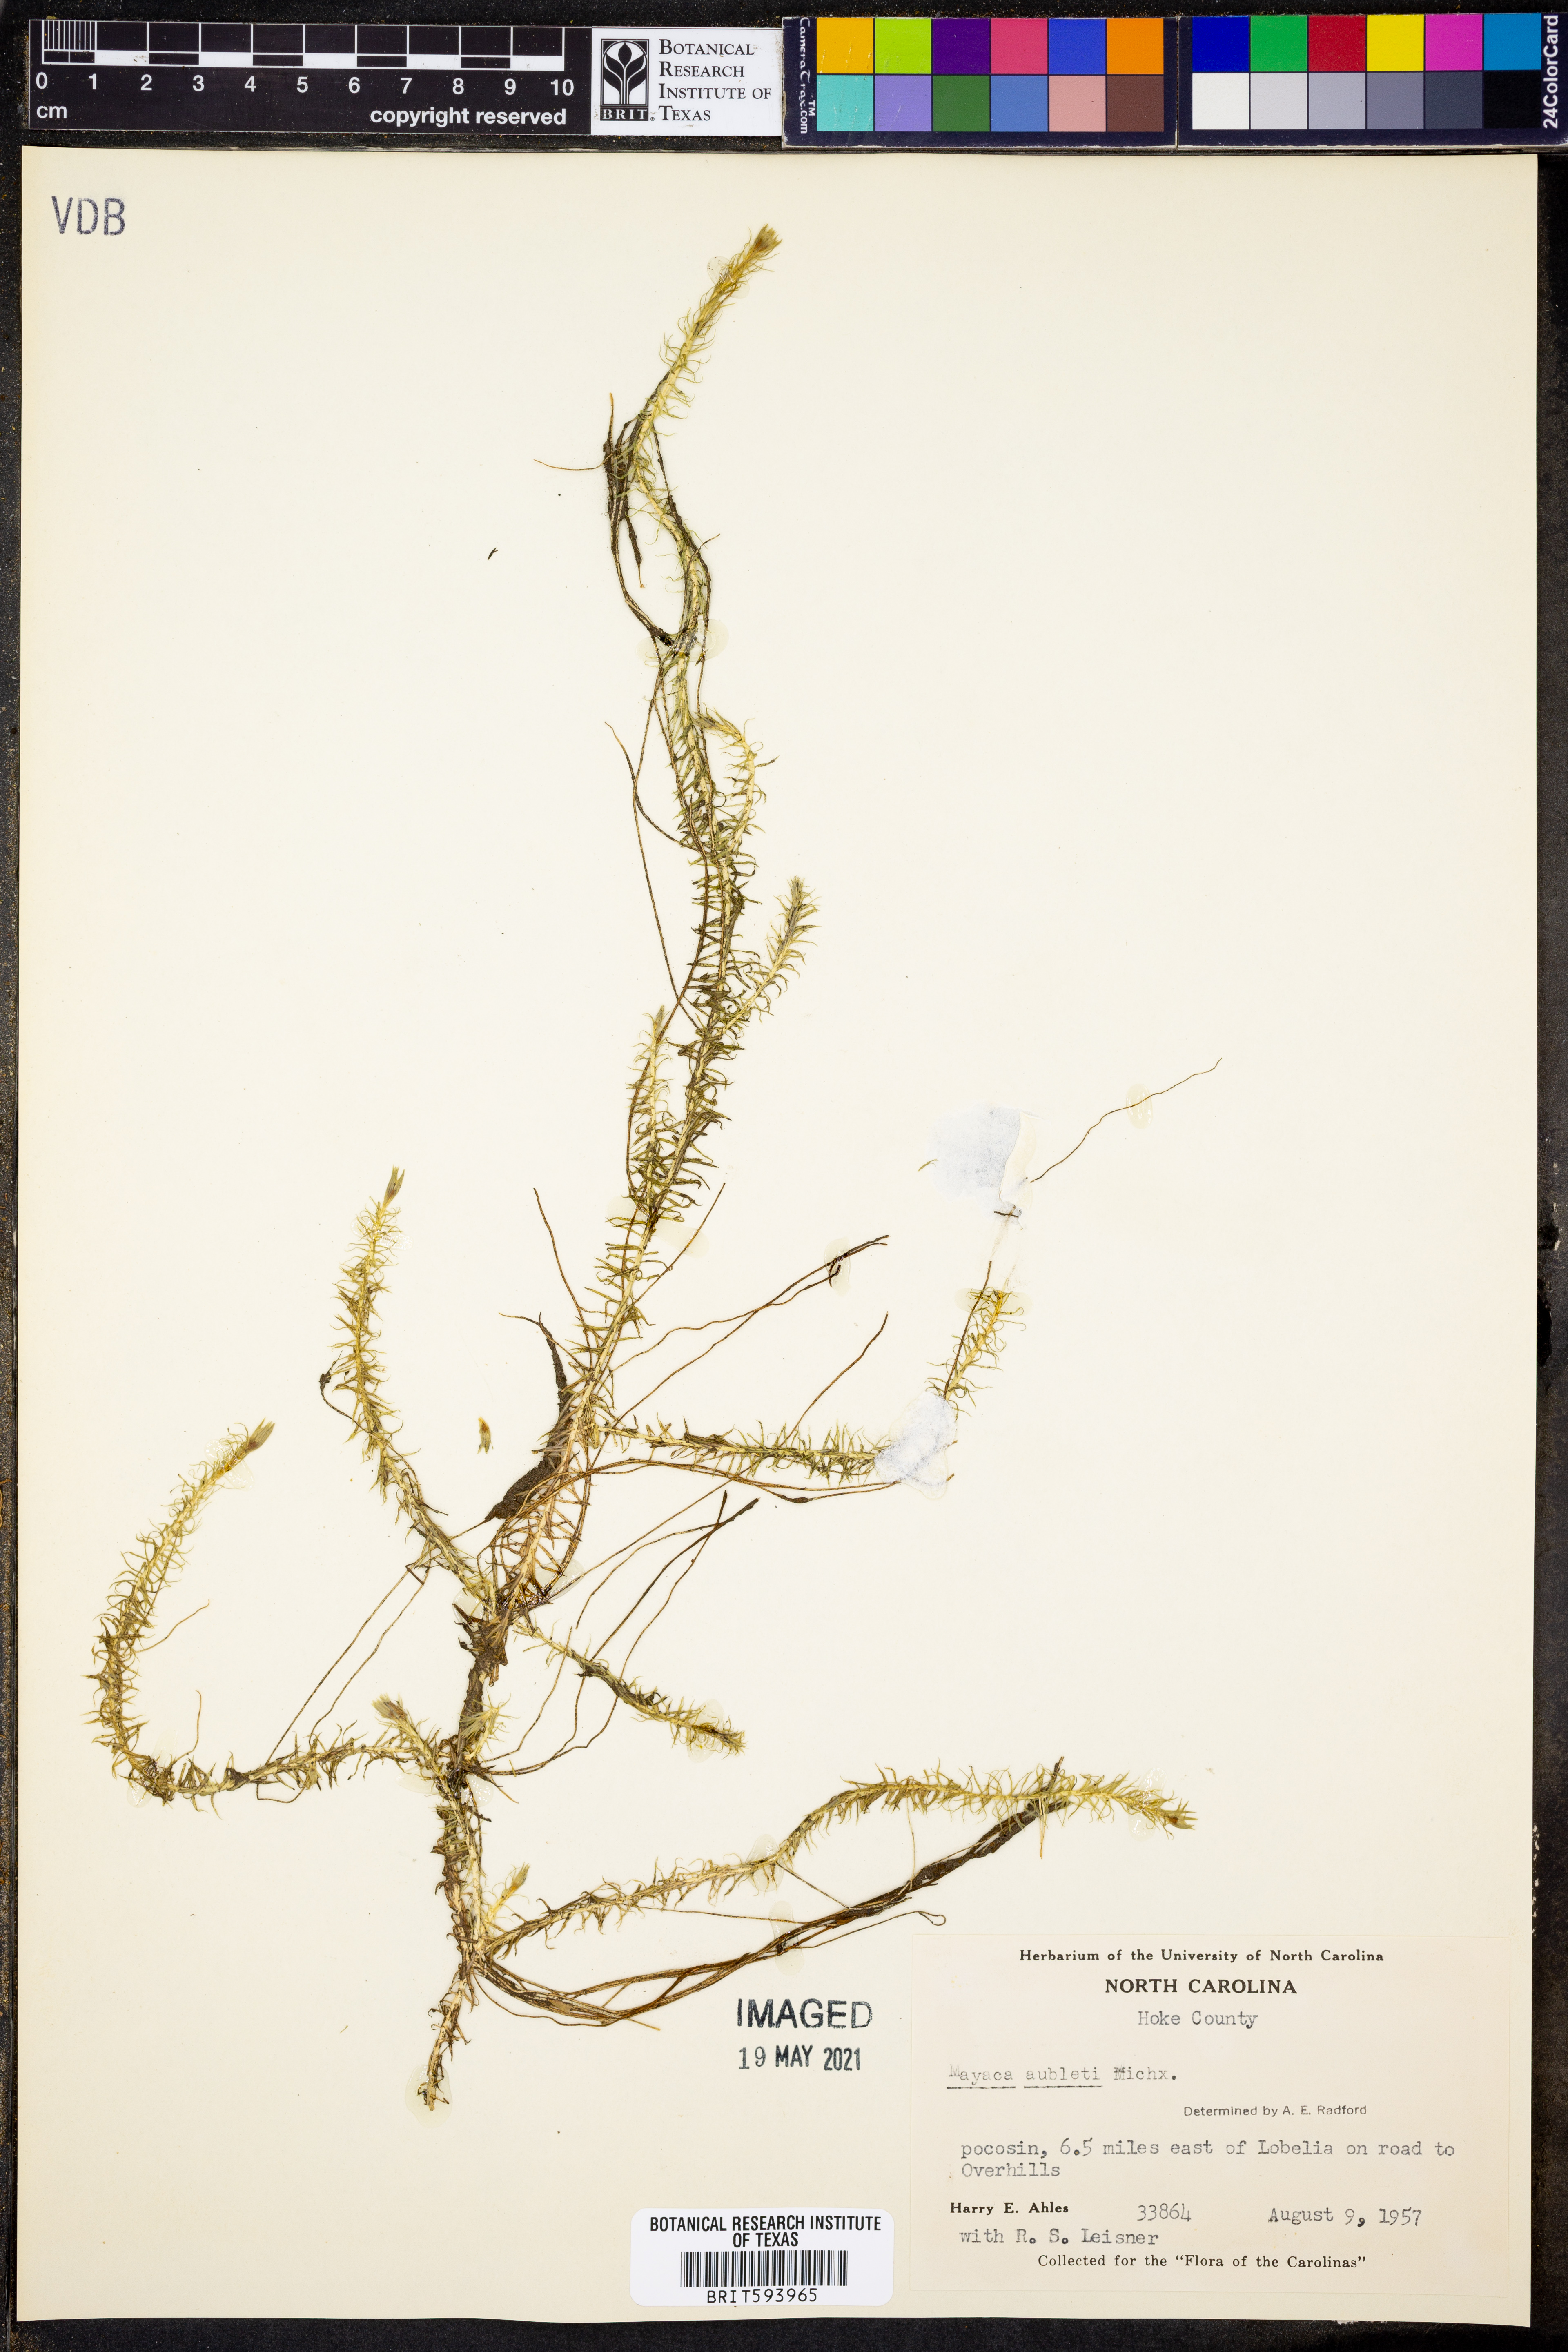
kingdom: Plantae
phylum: Tracheophyta
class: Liliopsida
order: Poales
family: Mayacaceae
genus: Mayaca
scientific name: Mayaca fluviatilis
